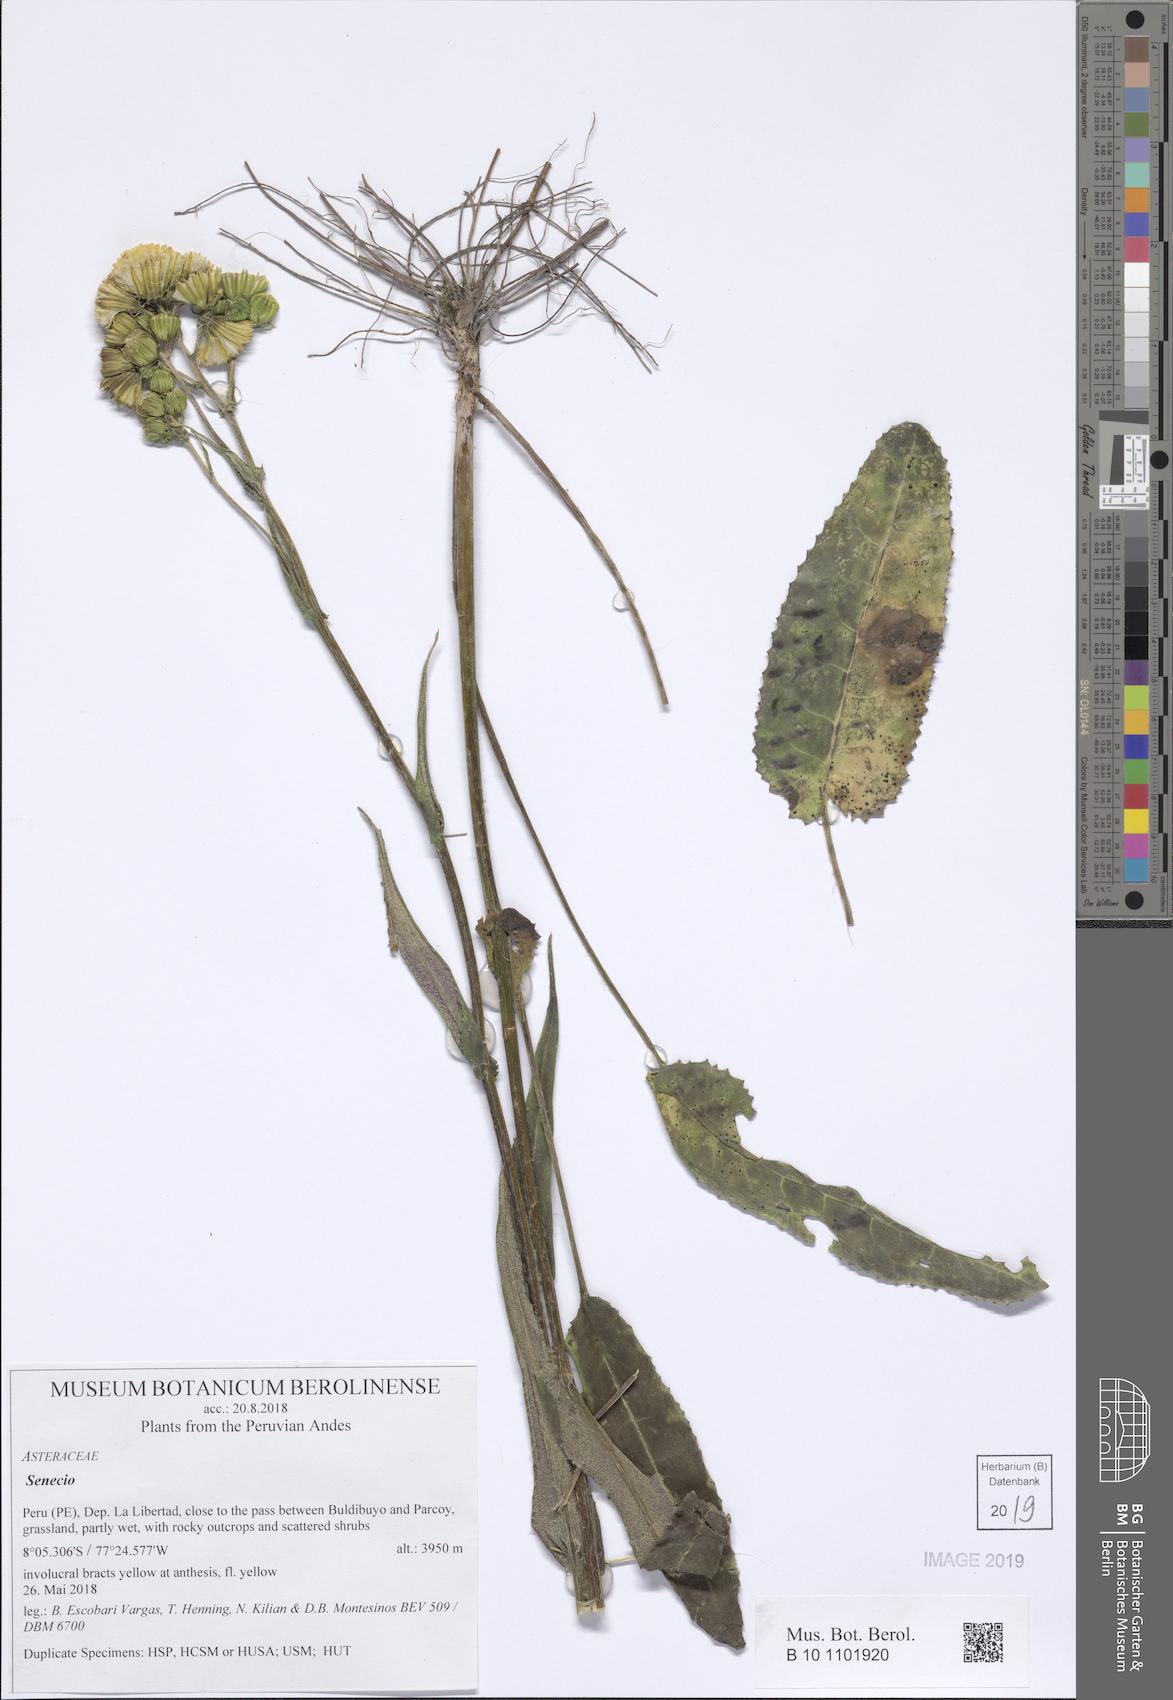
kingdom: Plantae
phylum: Tracheophyta
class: Magnoliopsida
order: Asterales
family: Asteraceae
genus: Senecio
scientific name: Senecio praeruptorum
